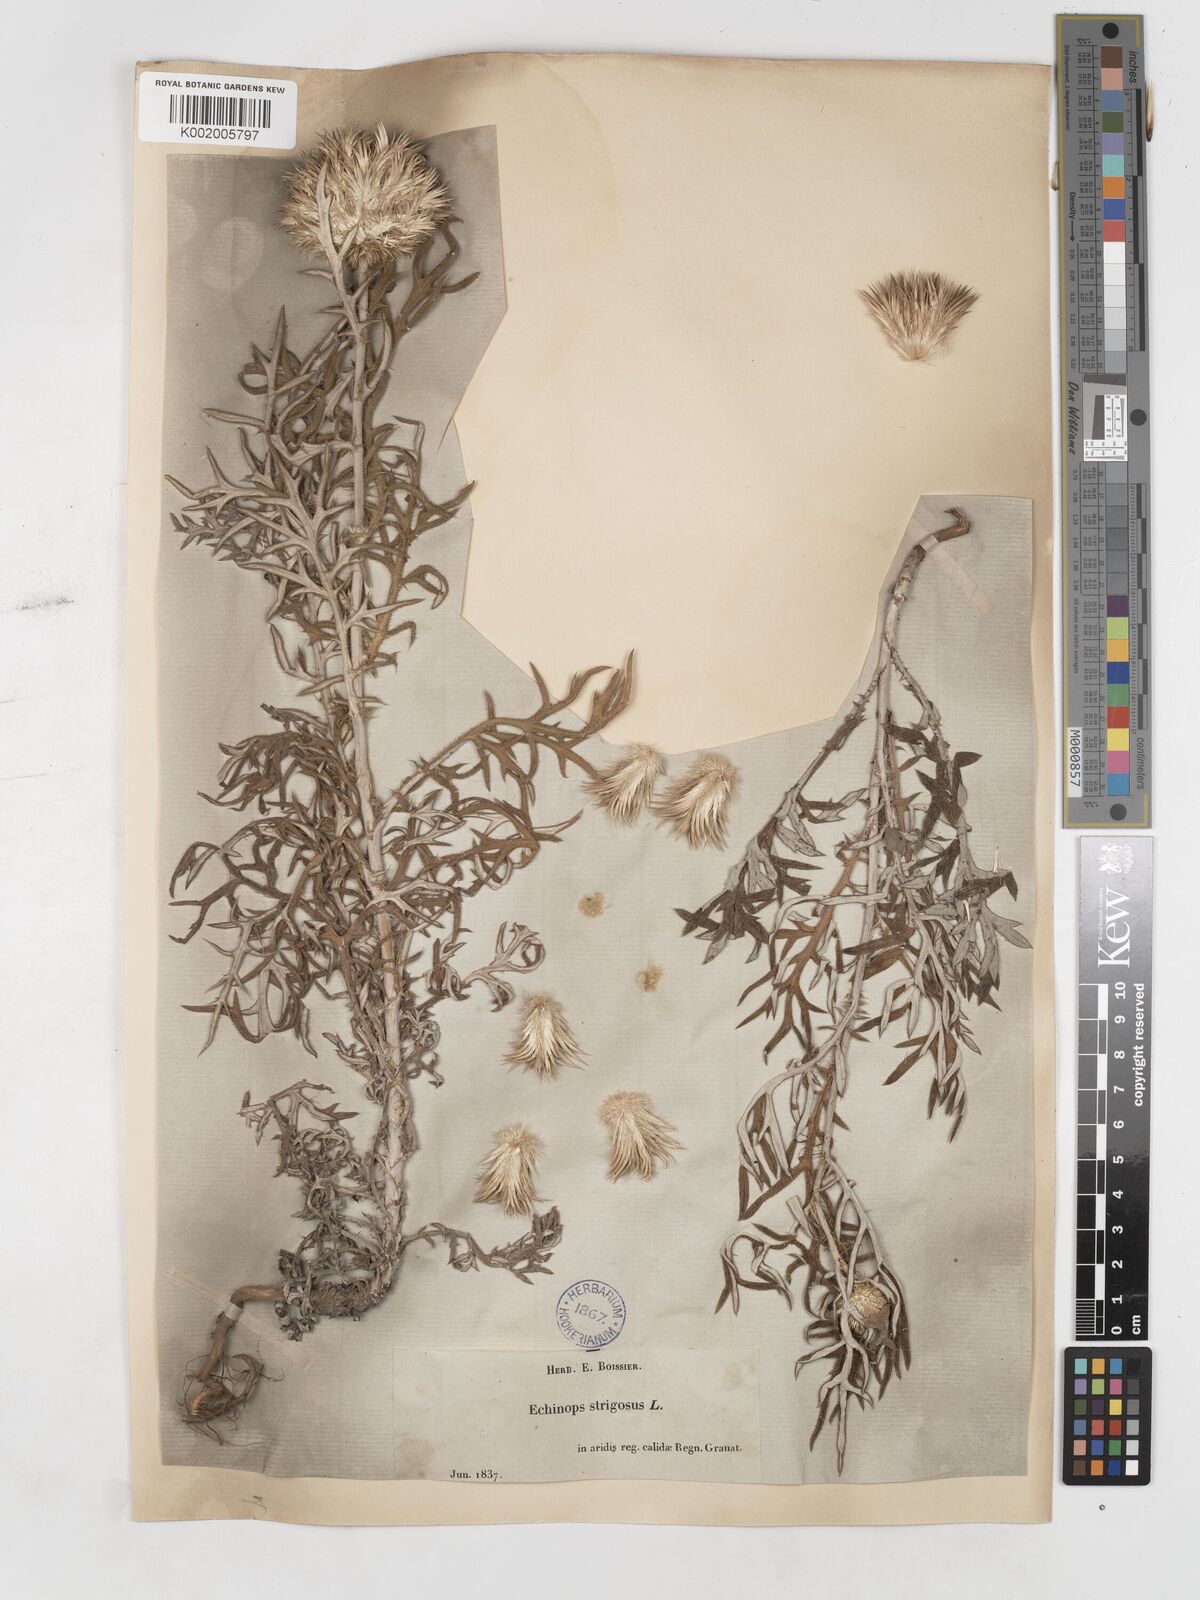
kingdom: Plantae
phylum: Tracheophyta
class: Magnoliopsida
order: Asterales
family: Asteraceae
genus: Echinops
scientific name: Echinops strigosus
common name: Rough-leaf globe thistle
